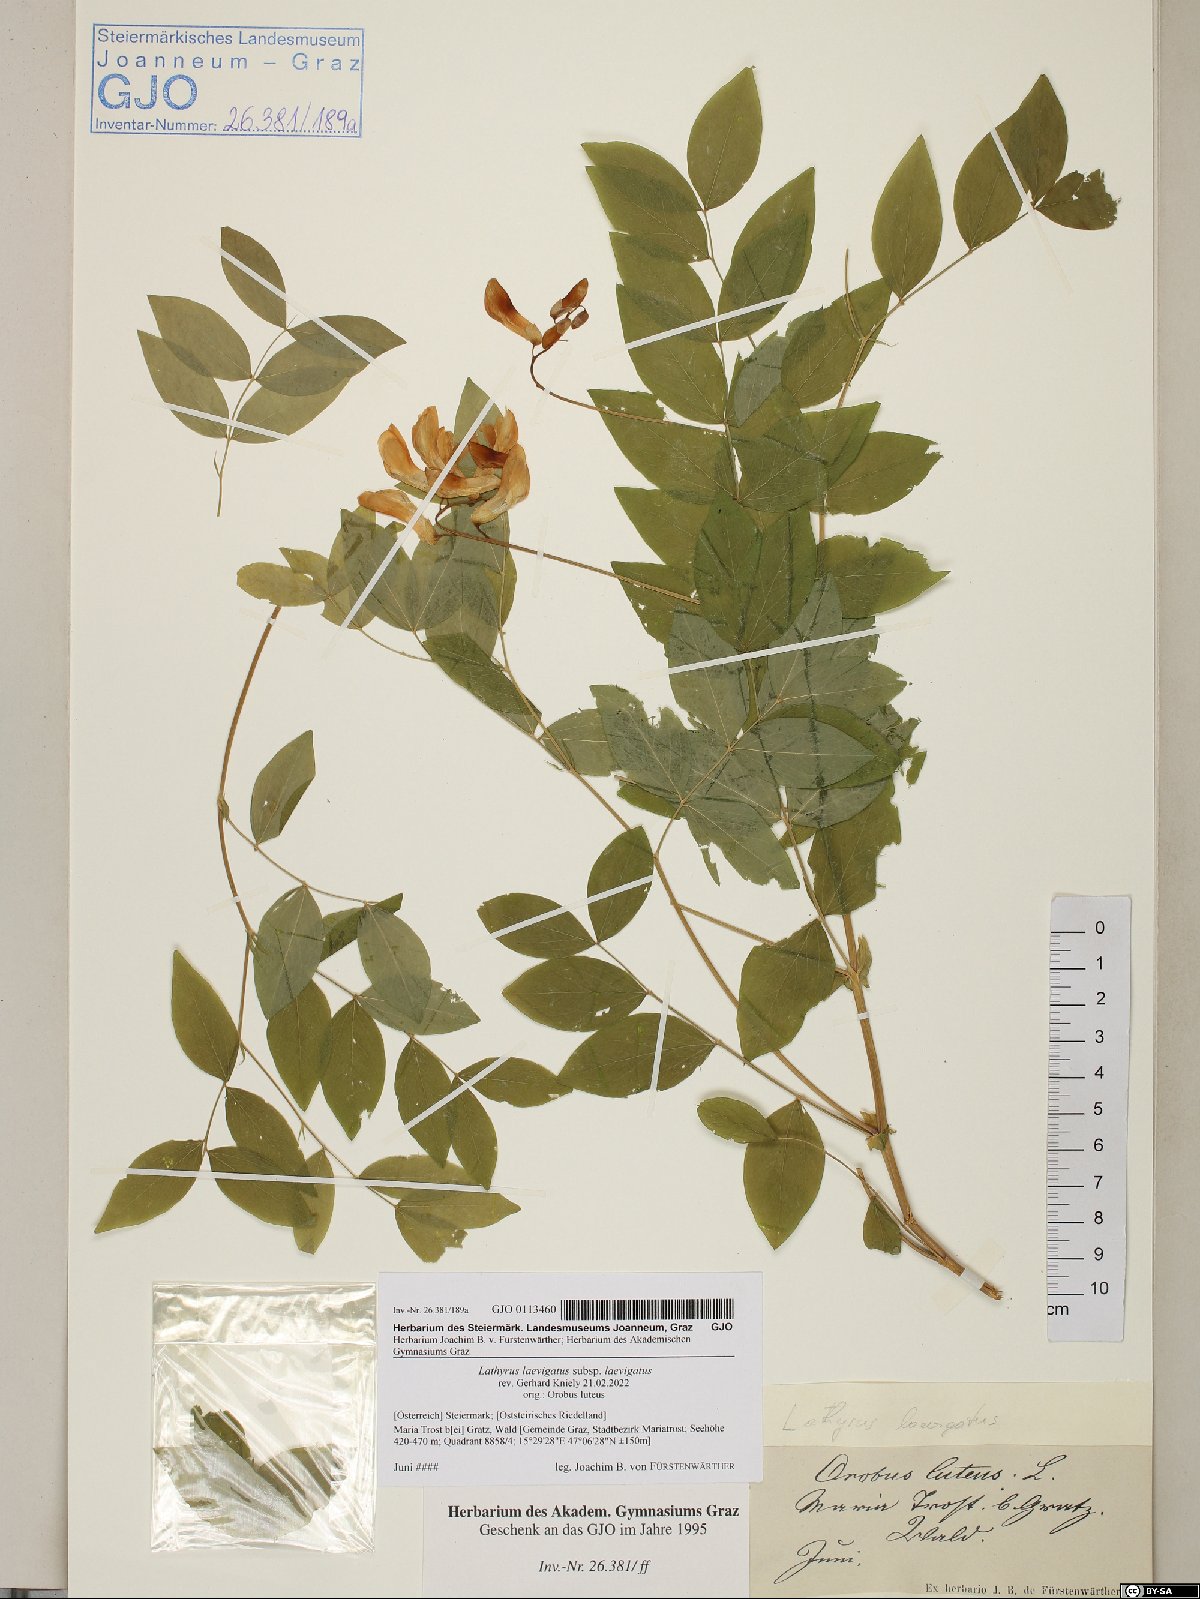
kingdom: Plantae
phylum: Tracheophyta
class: Magnoliopsida
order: Fabales
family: Fabaceae
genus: Lathyrus
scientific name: Lathyrus laevigatus
